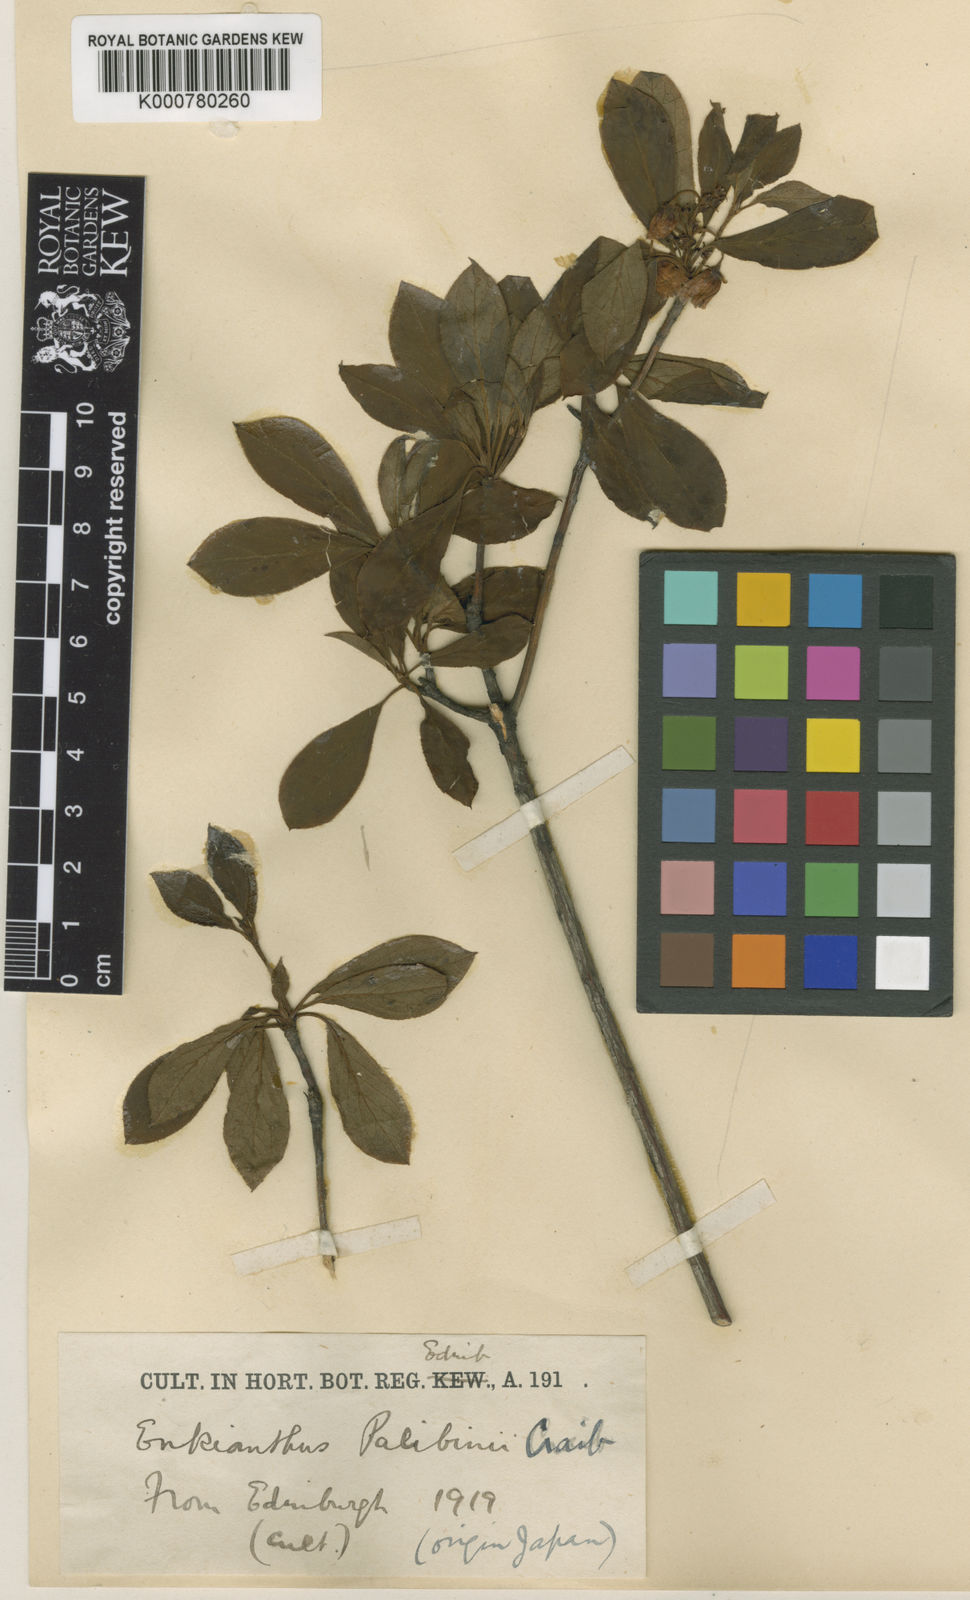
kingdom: Plantae
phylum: Tracheophyta
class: Magnoliopsida
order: Ericales
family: Ericaceae
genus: Enkianthus
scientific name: Enkianthus campanulatus
